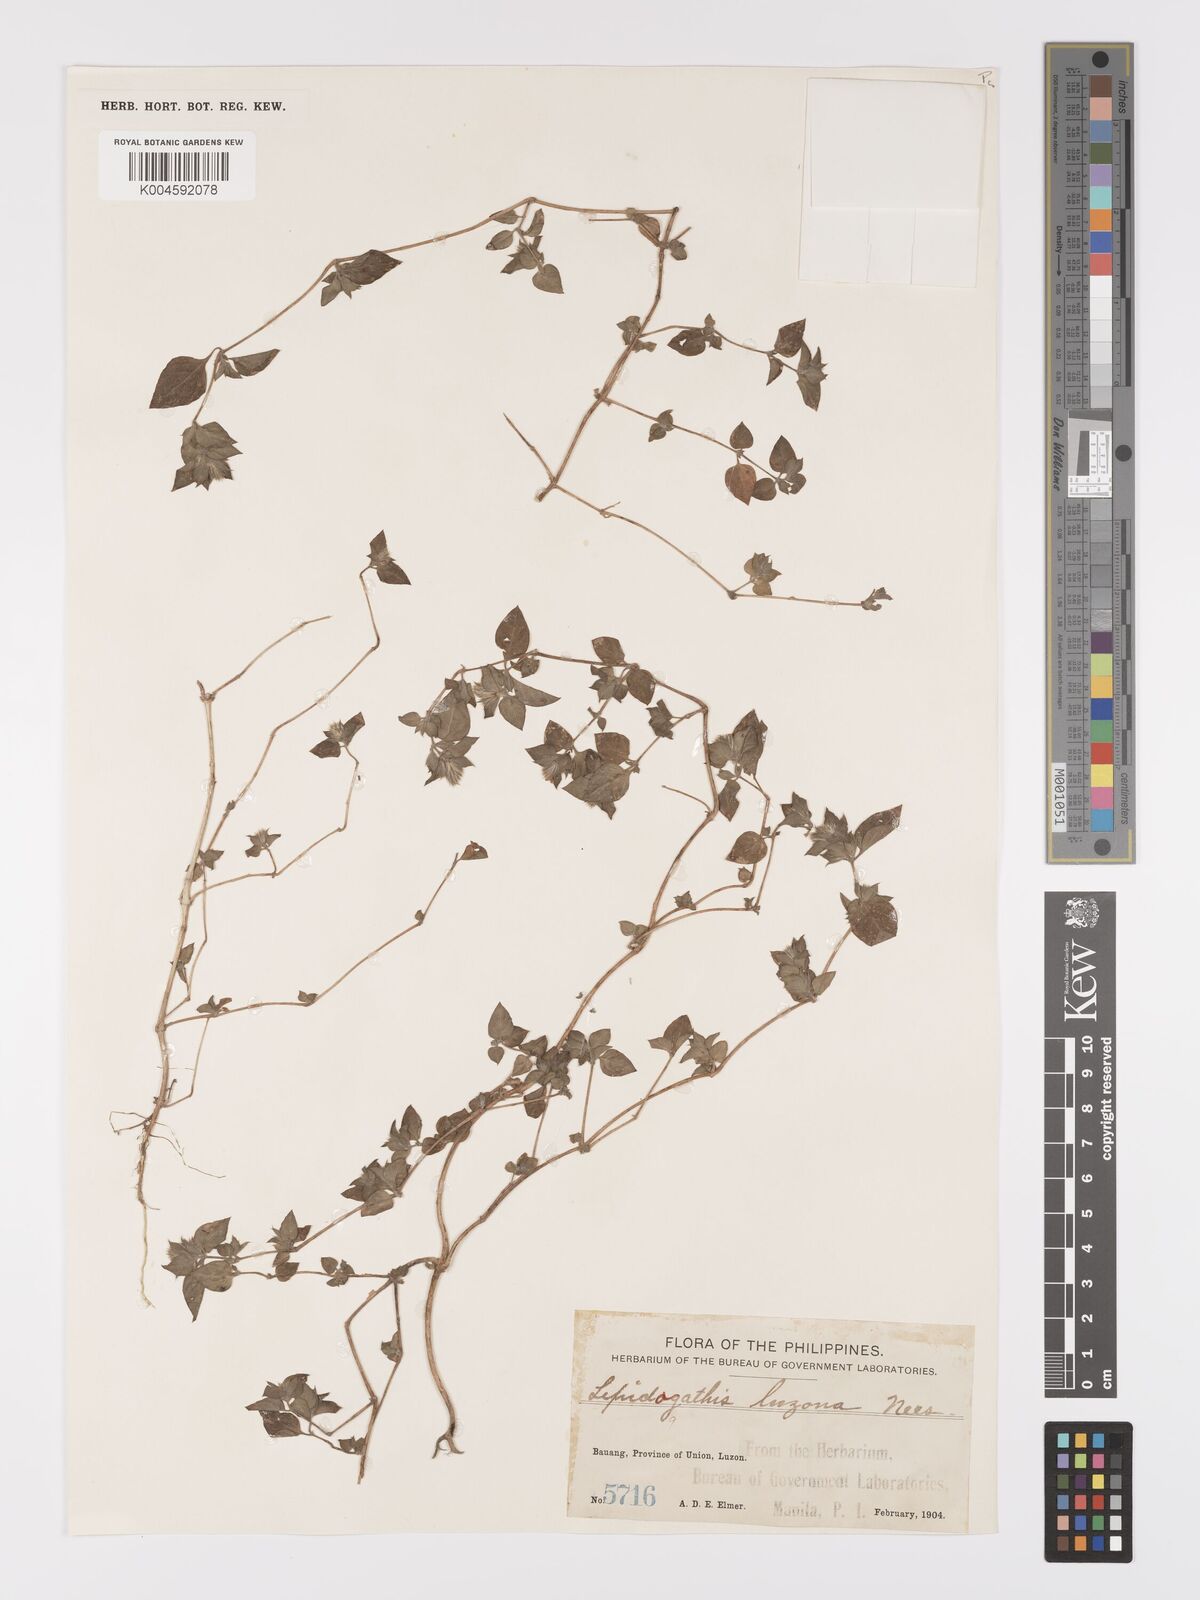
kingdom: Plantae
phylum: Tracheophyta
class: Magnoliopsida
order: Lamiales
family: Acanthaceae
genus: Lepidagathis
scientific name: Lepidagathis luzona
